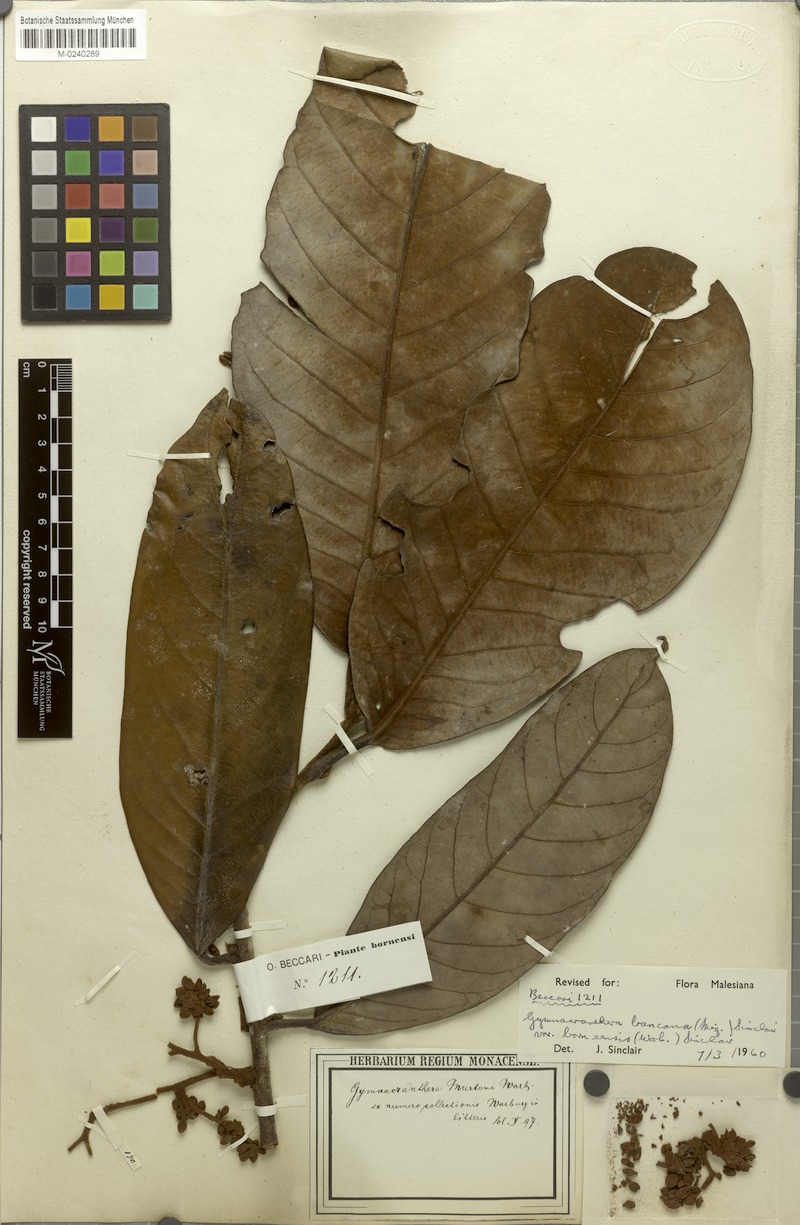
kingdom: Plantae
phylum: Tracheophyta
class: Magnoliopsida
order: Magnoliales
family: Myristicaceae
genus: Gymnacranthera
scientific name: Gymnacranthera bancana
